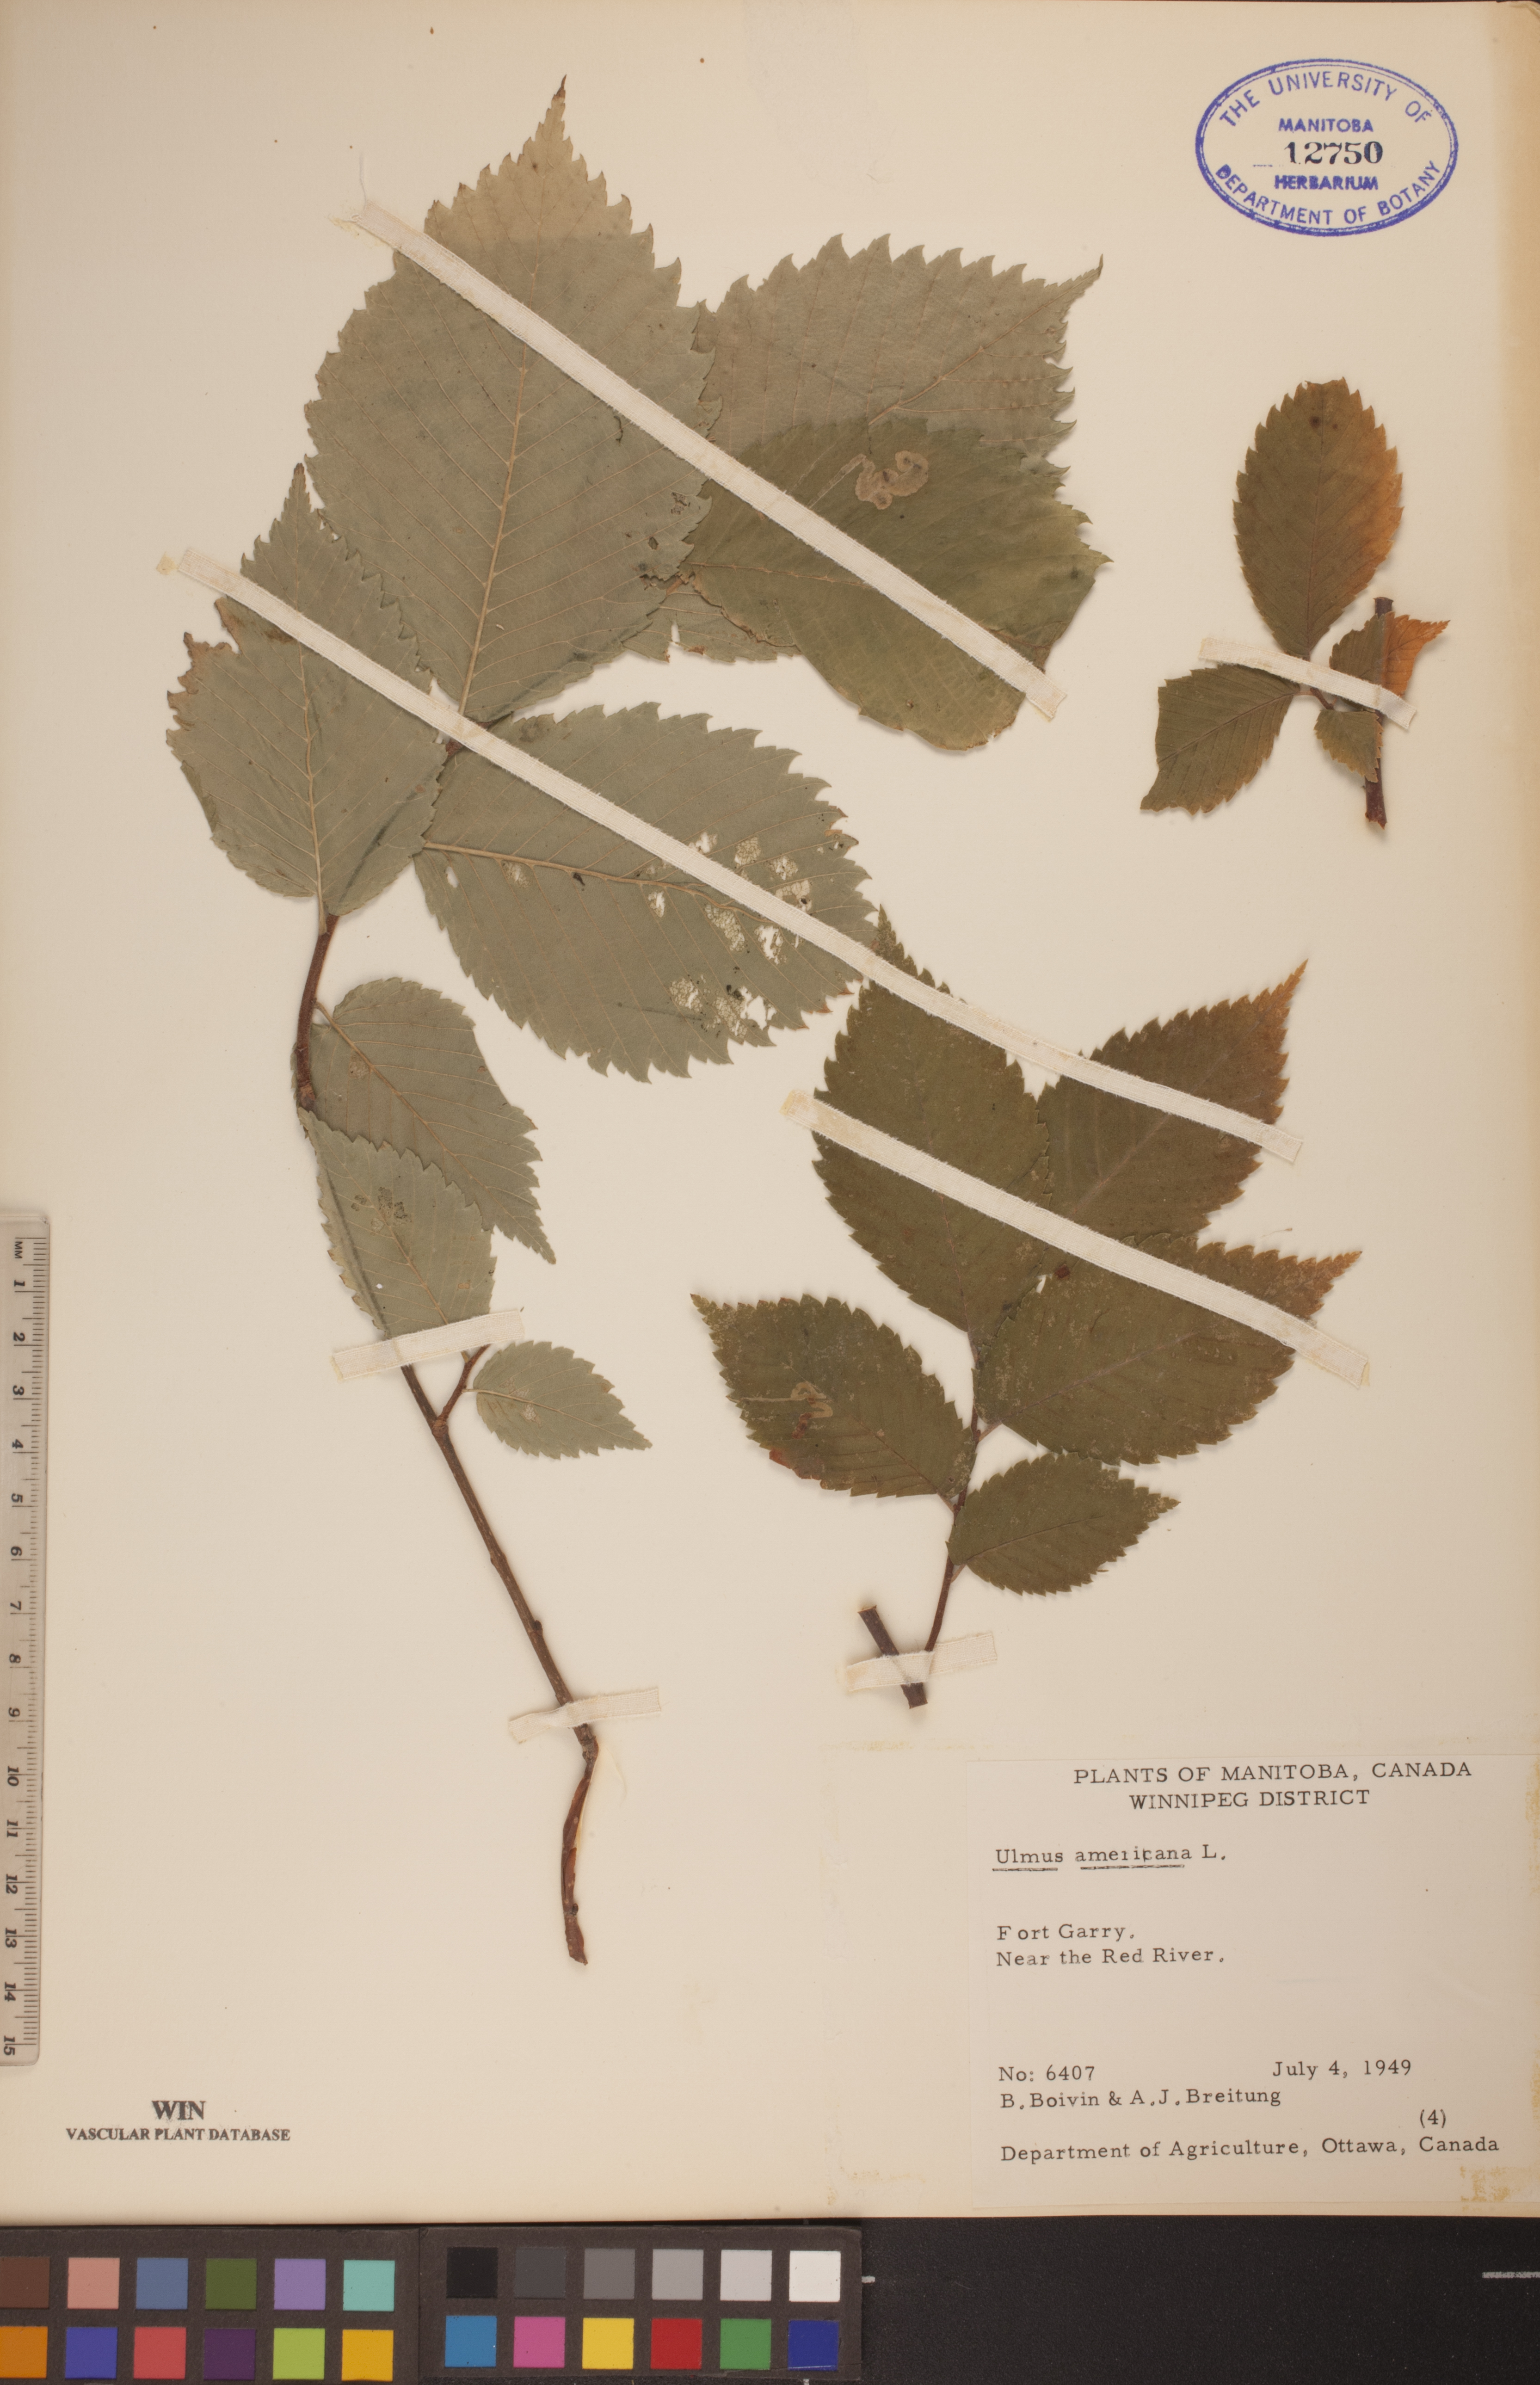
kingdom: Plantae
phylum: Tracheophyta
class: Magnoliopsida
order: Rosales
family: Ulmaceae
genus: Ulmus
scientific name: Ulmus americana
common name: American elm
